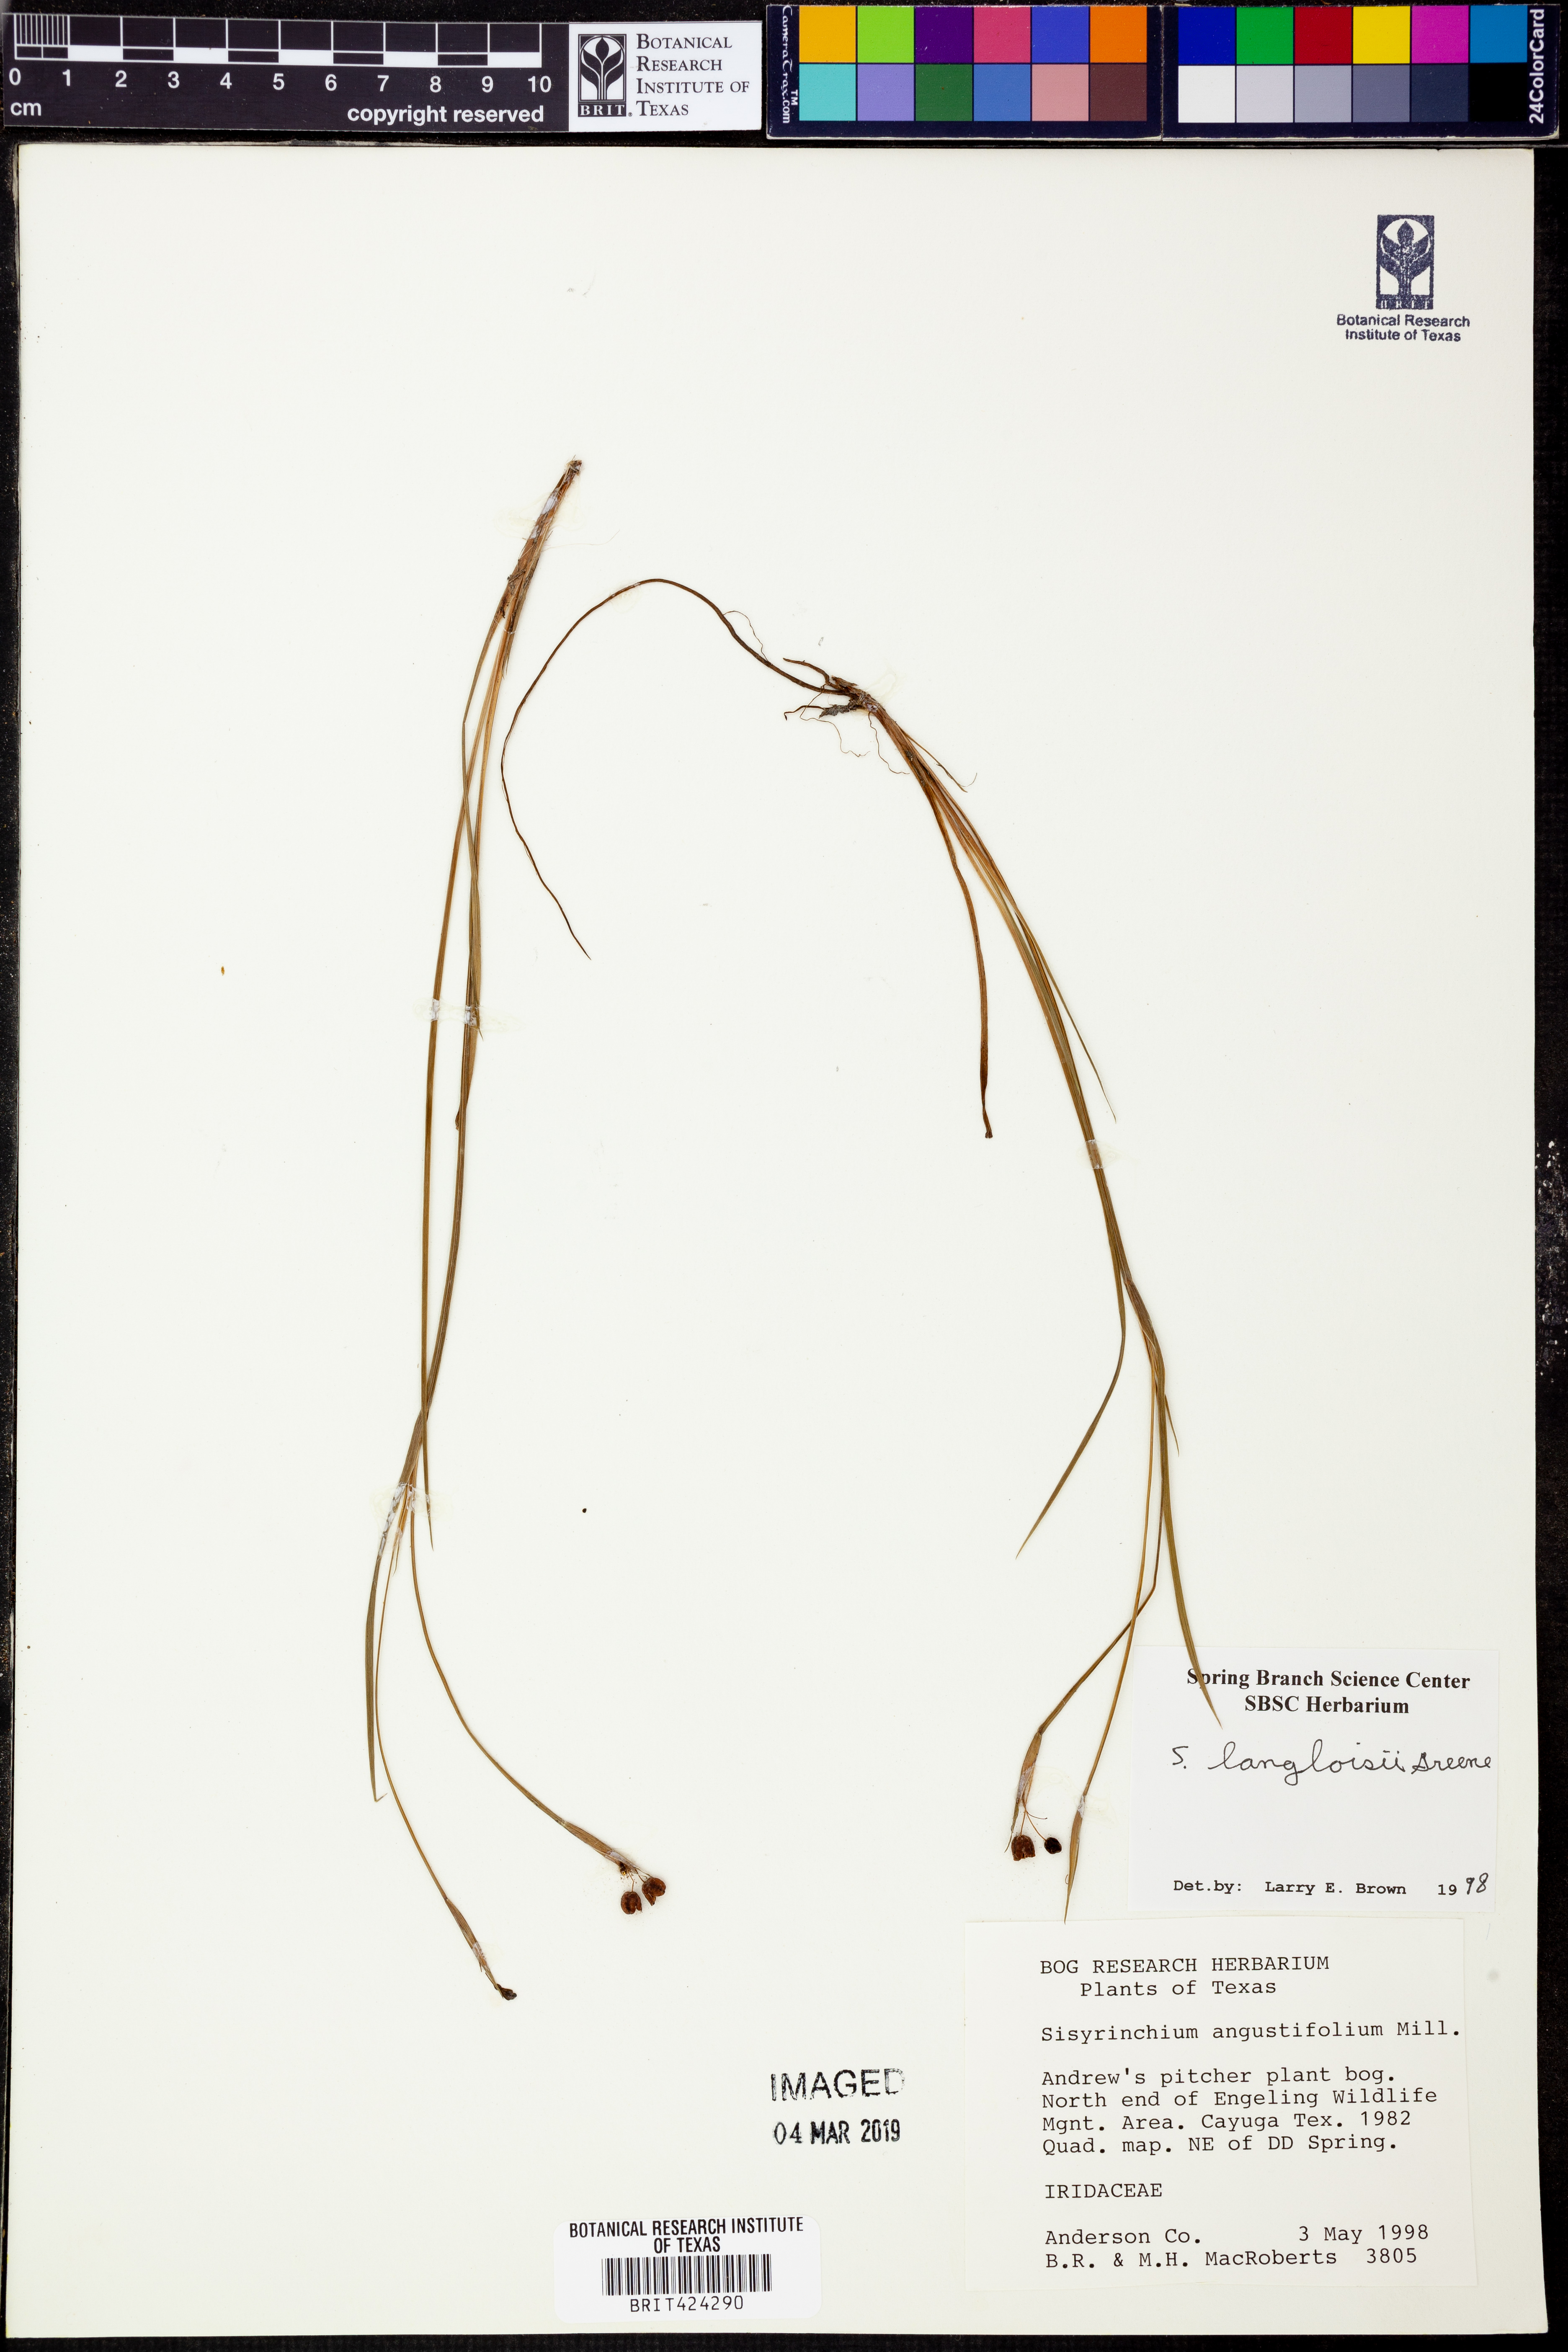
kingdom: Plantae
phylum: Tracheophyta
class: Liliopsida
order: Asparagales
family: Iridaceae
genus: Sisyrinchium
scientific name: Sisyrinchium langloisii
